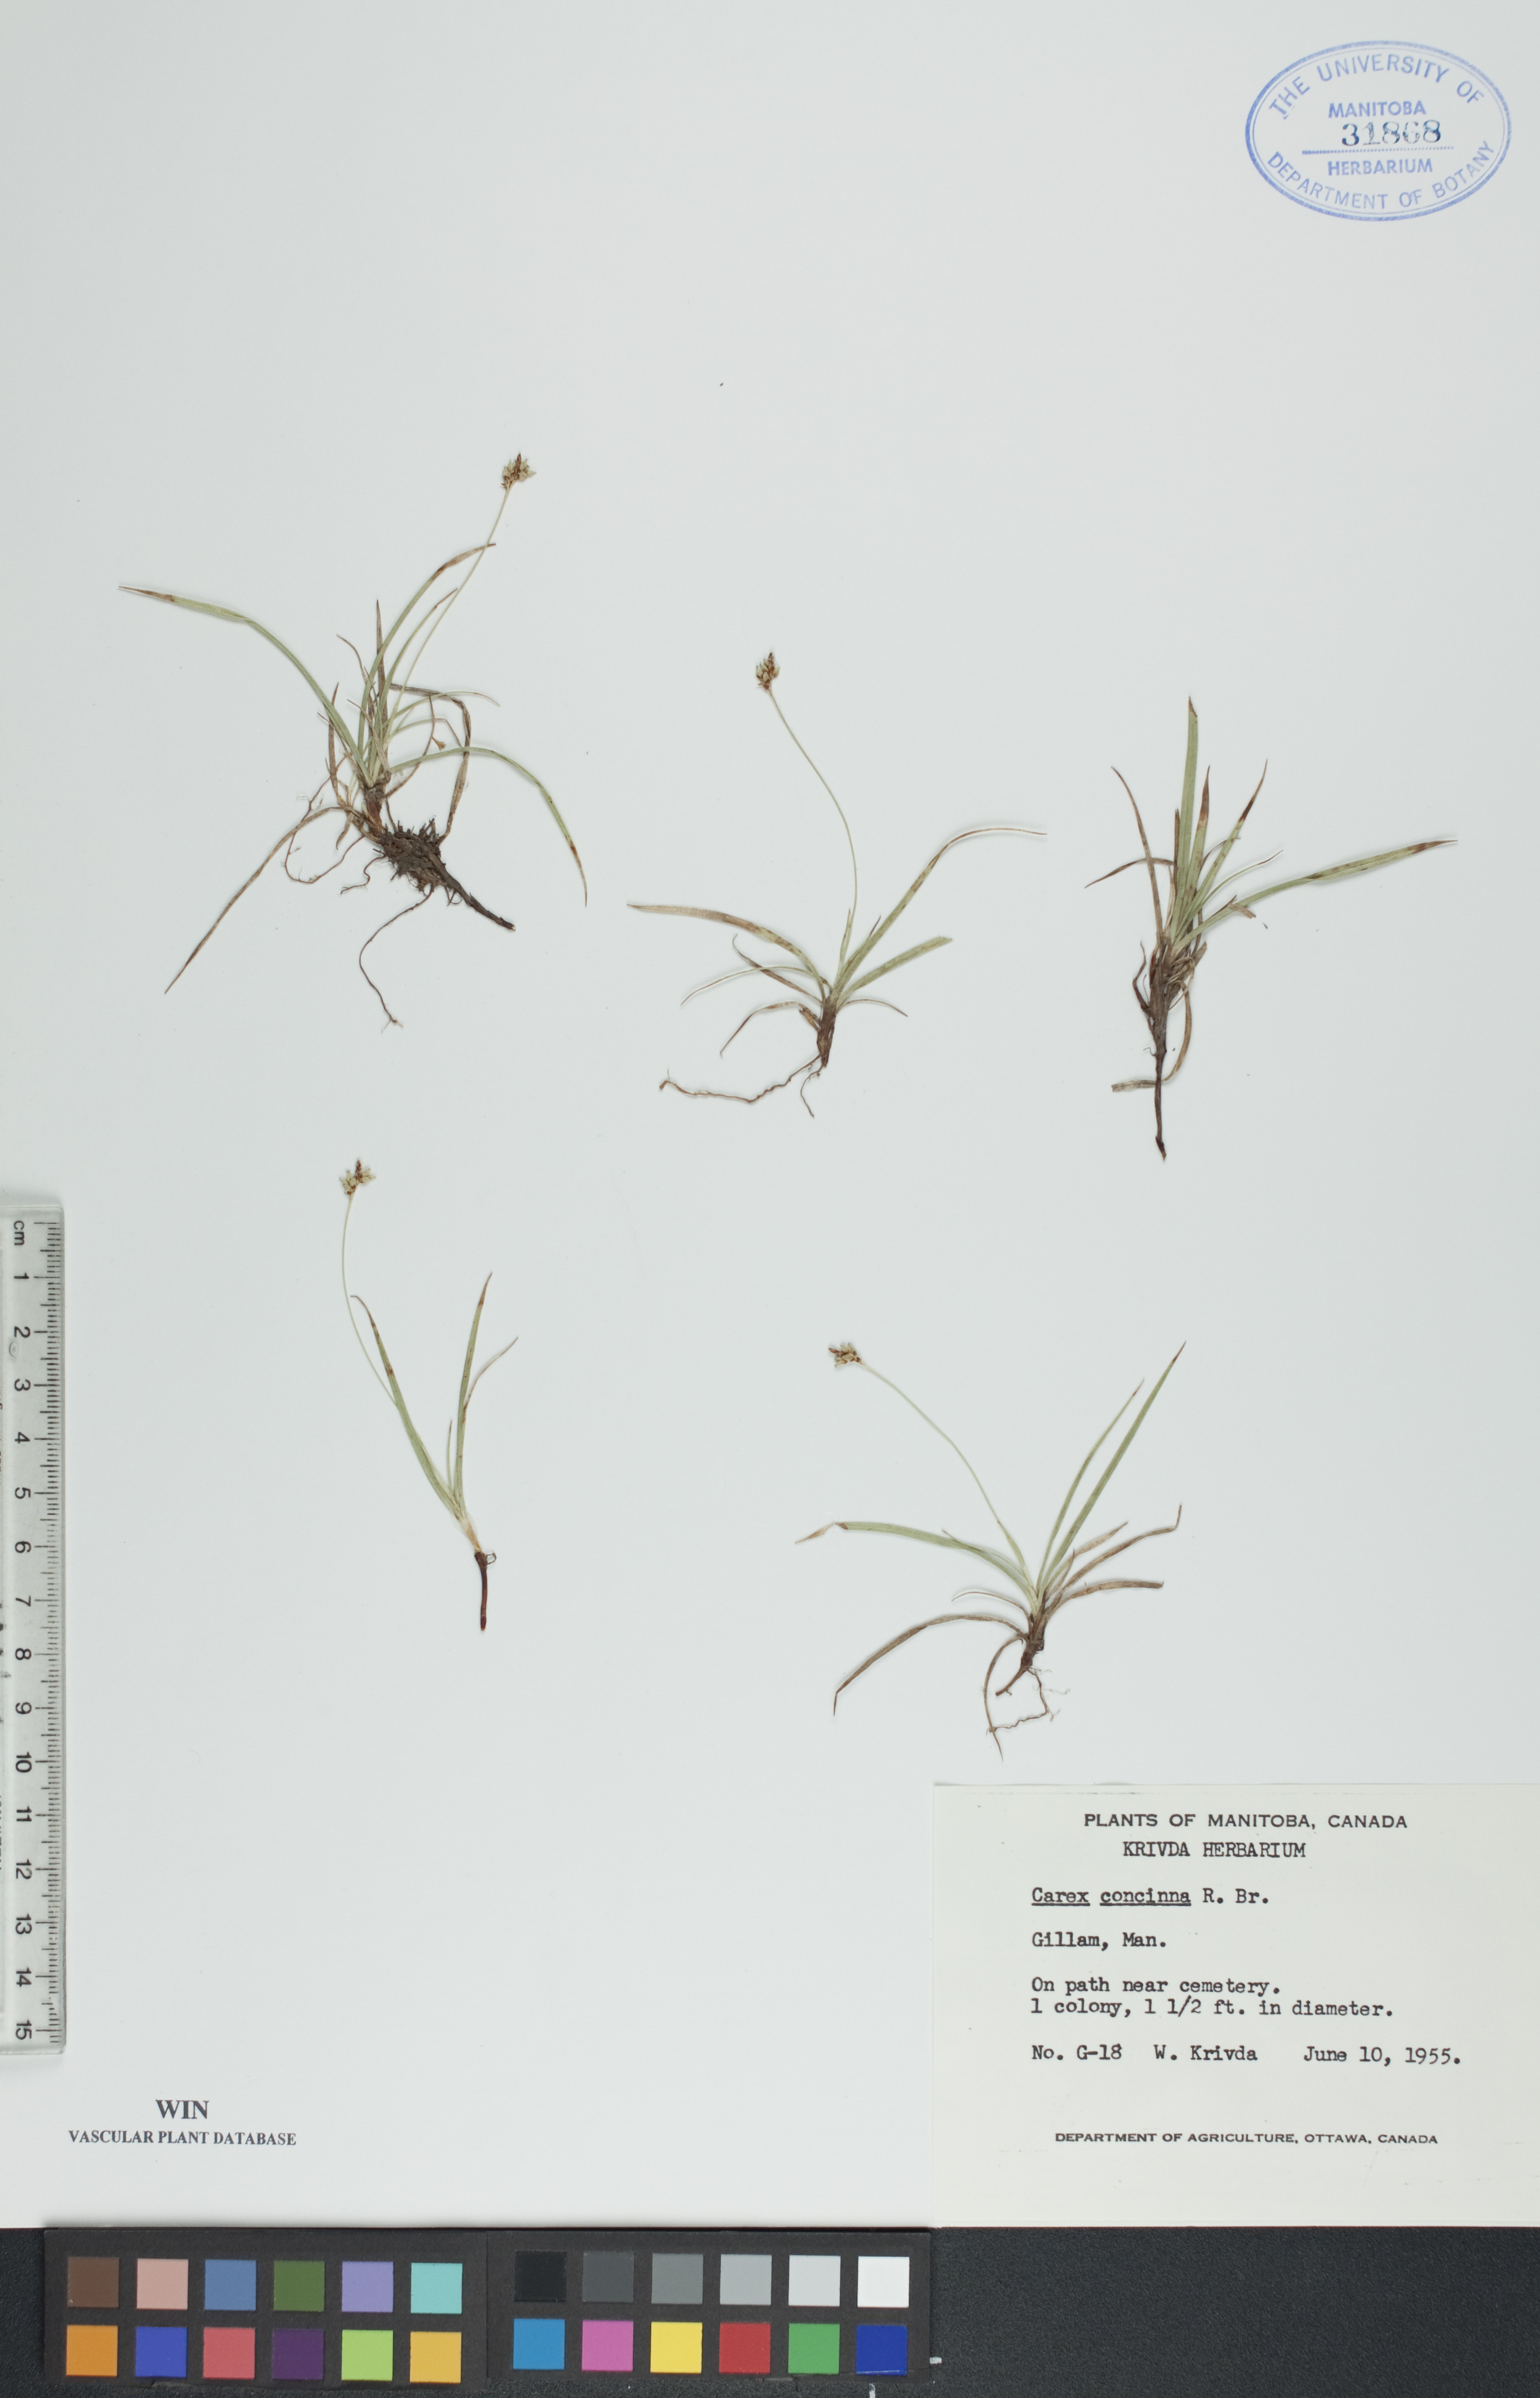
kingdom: Plantae
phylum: Tracheophyta
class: Liliopsida
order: Poales
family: Cyperaceae
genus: Carex
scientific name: Carex concinna
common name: Beautiful sedge
